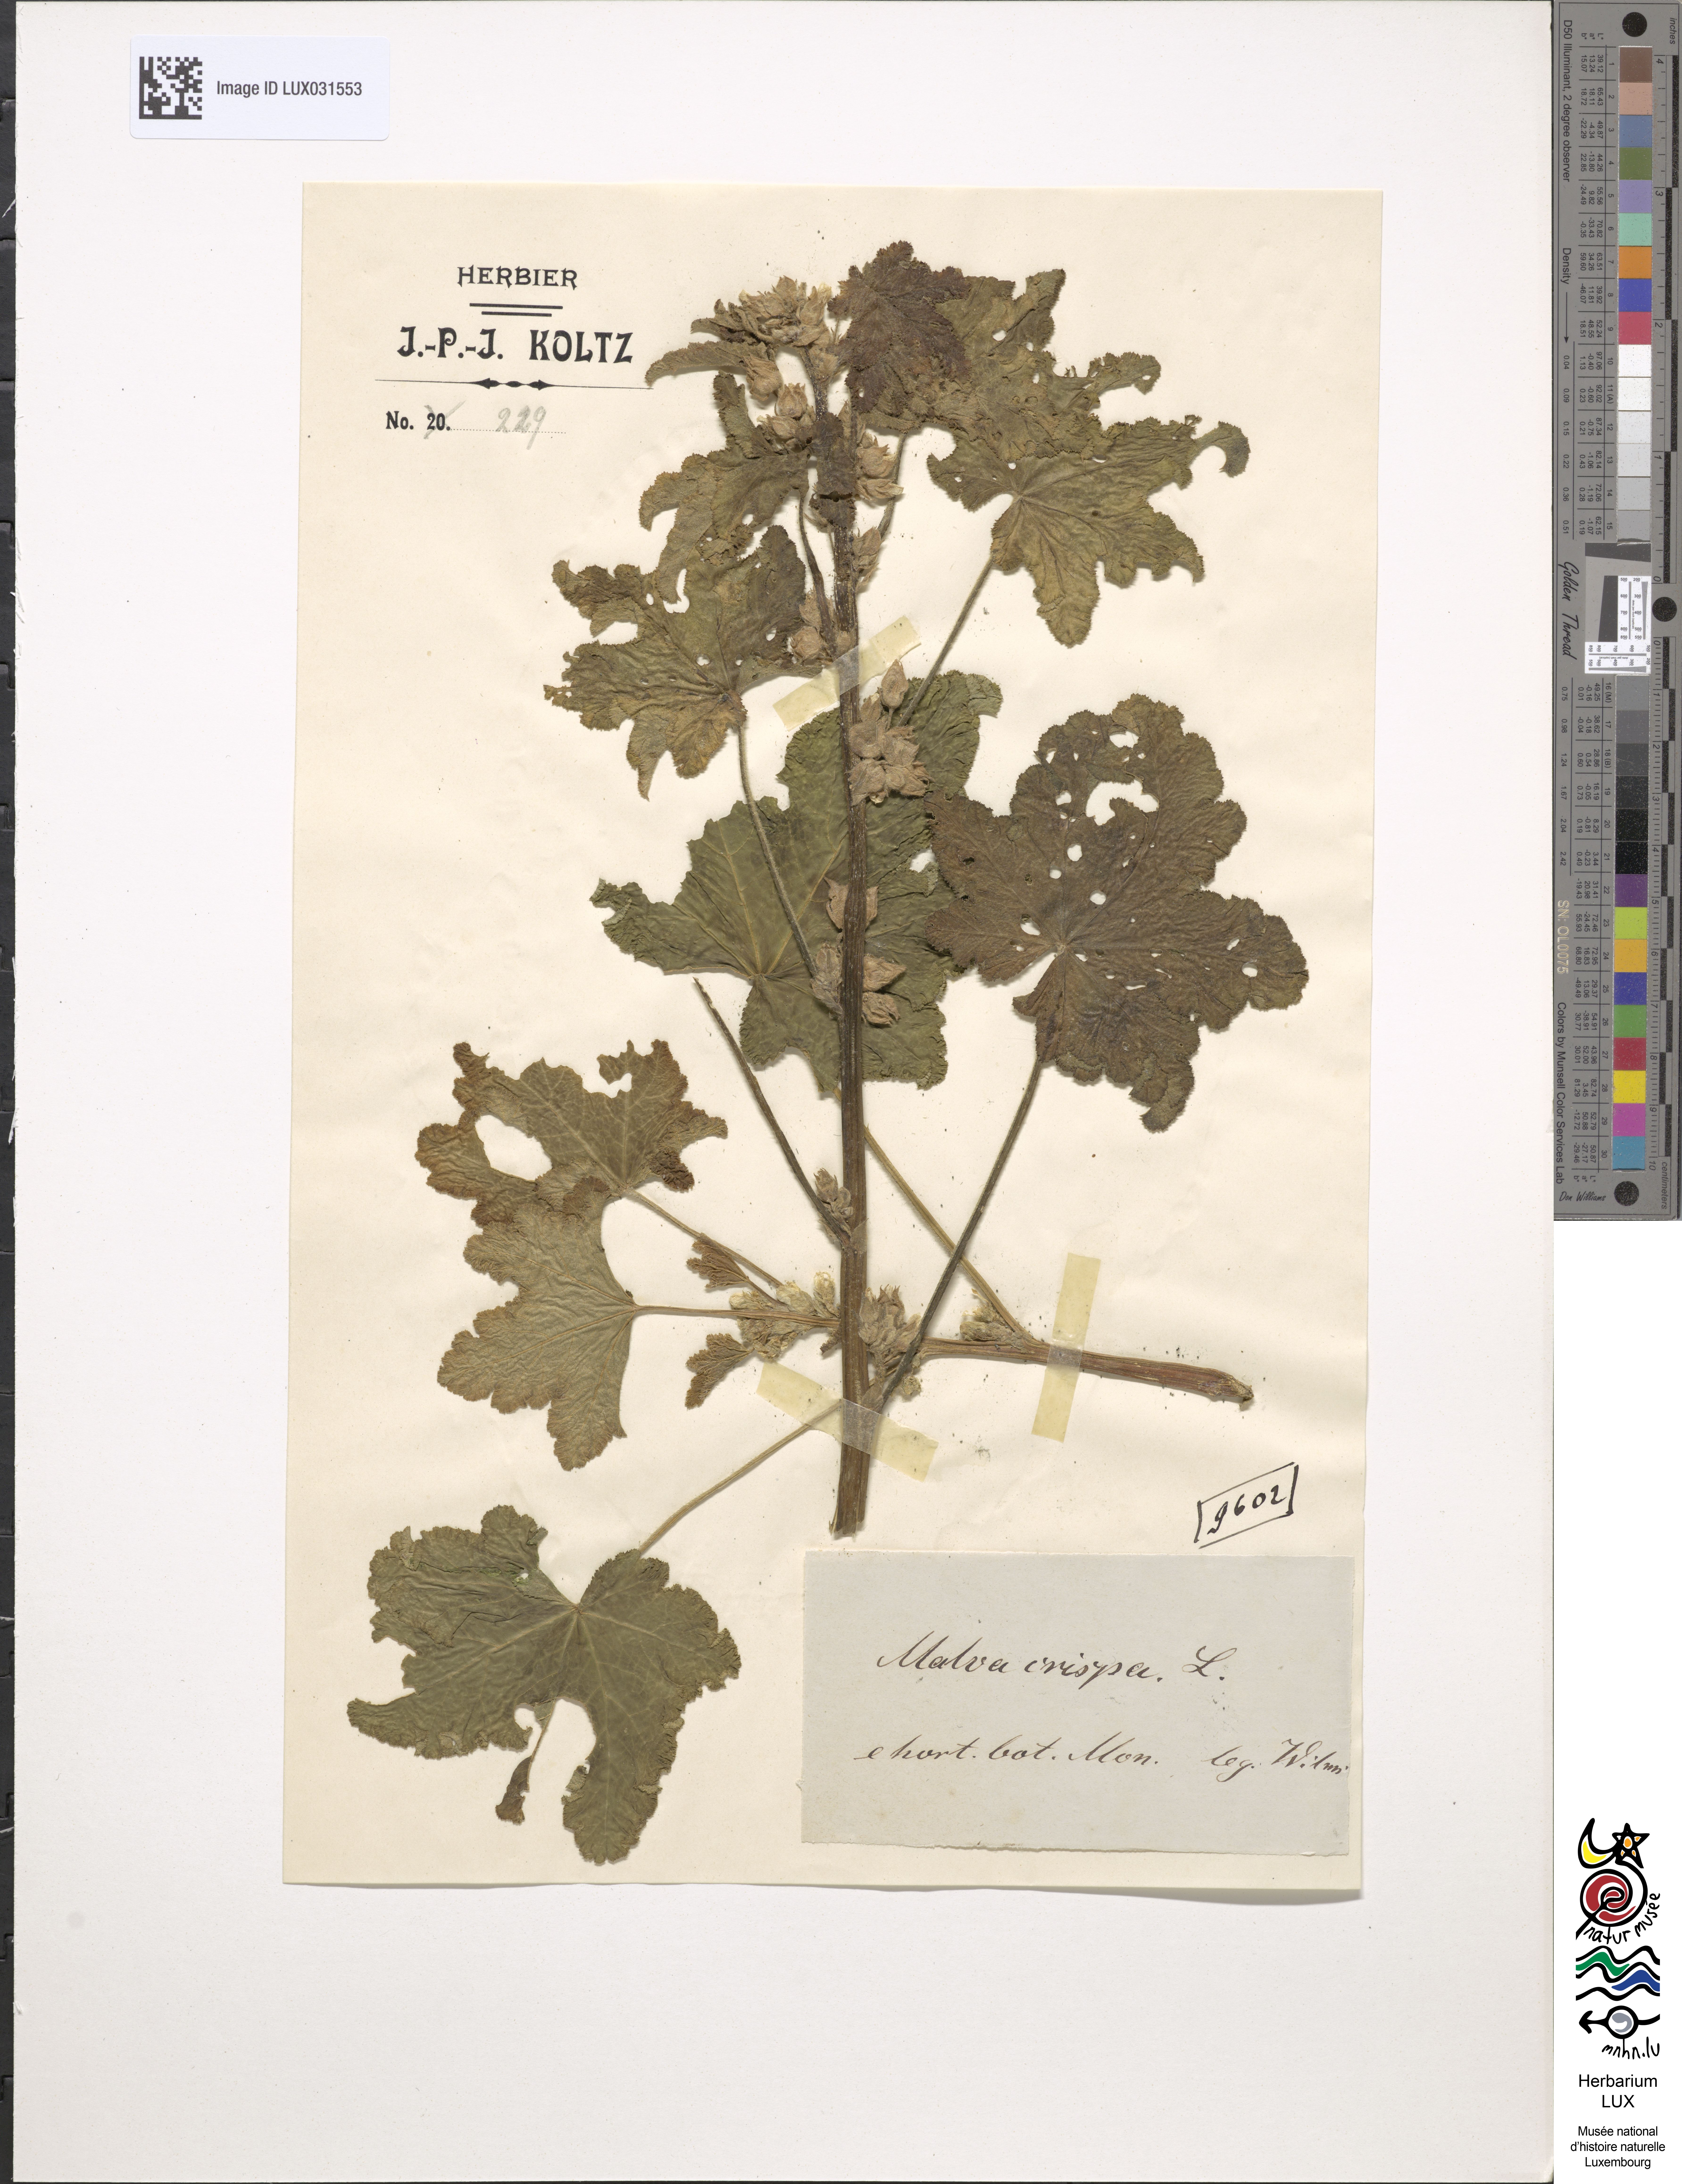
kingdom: Plantae
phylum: Tracheophyta
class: Magnoliopsida
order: Malvales
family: Malvaceae
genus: Malva
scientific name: Malva verticillata
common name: Chinese mallow
